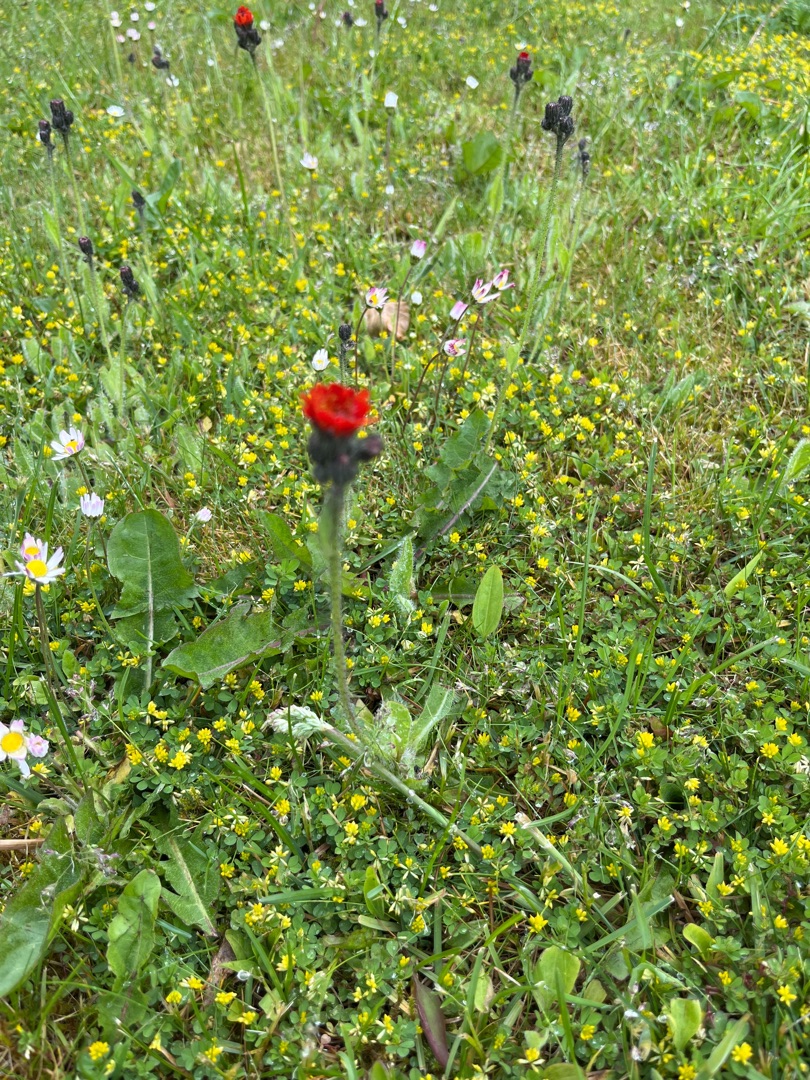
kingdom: Plantae
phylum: Tracheophyta
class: Magnoliopsida
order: Asterales
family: Asteraceae
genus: Pilosella
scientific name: Pilosella aurantiaca
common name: Pomerans-høgeurt
